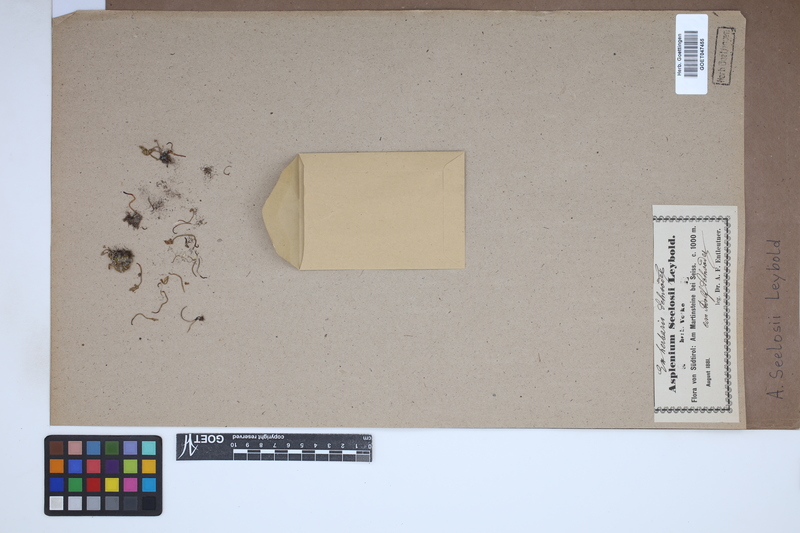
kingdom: Plantae
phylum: Tracheophyta
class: Polypodiopsida
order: Polypodiales
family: Aspleniaceae
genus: Asplenium
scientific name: Asplenium seelosii
